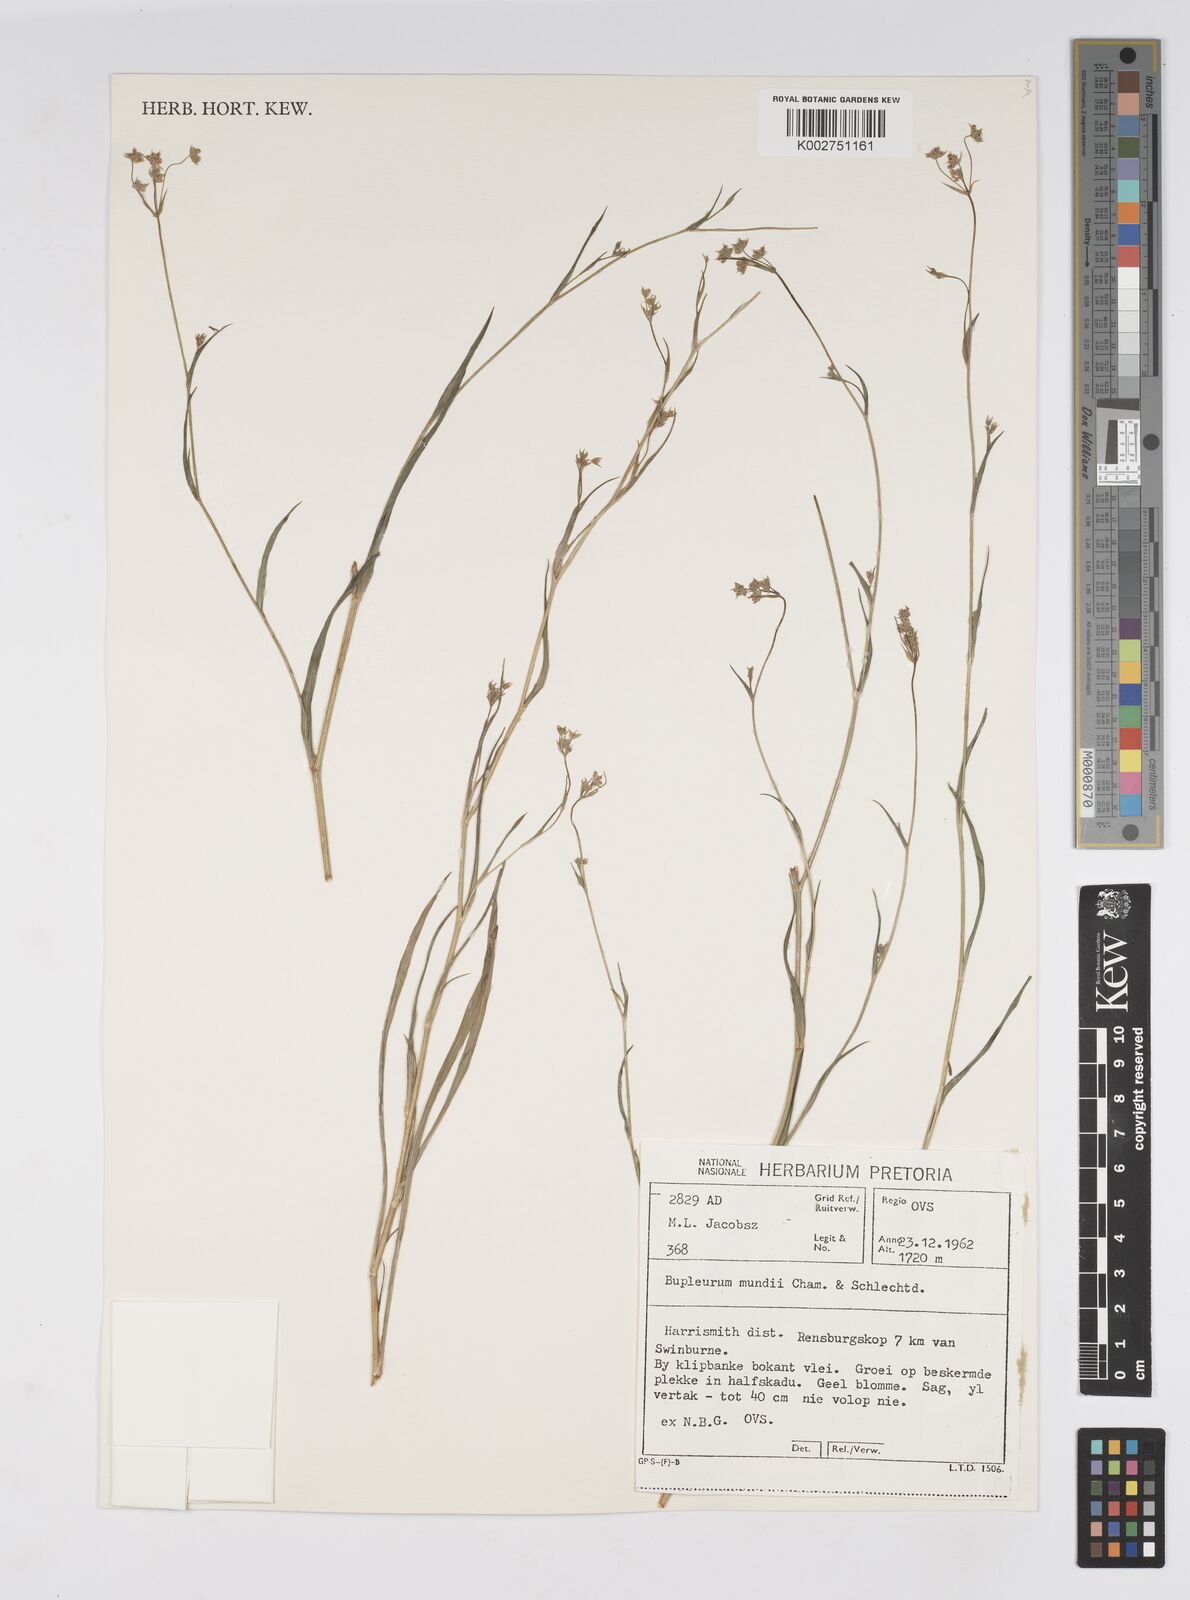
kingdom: Plantae
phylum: Tracheophyta
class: Magnoliopsida
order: Apiales
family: Apiaceae
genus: Bupleurum
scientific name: Bupleurum mundii
